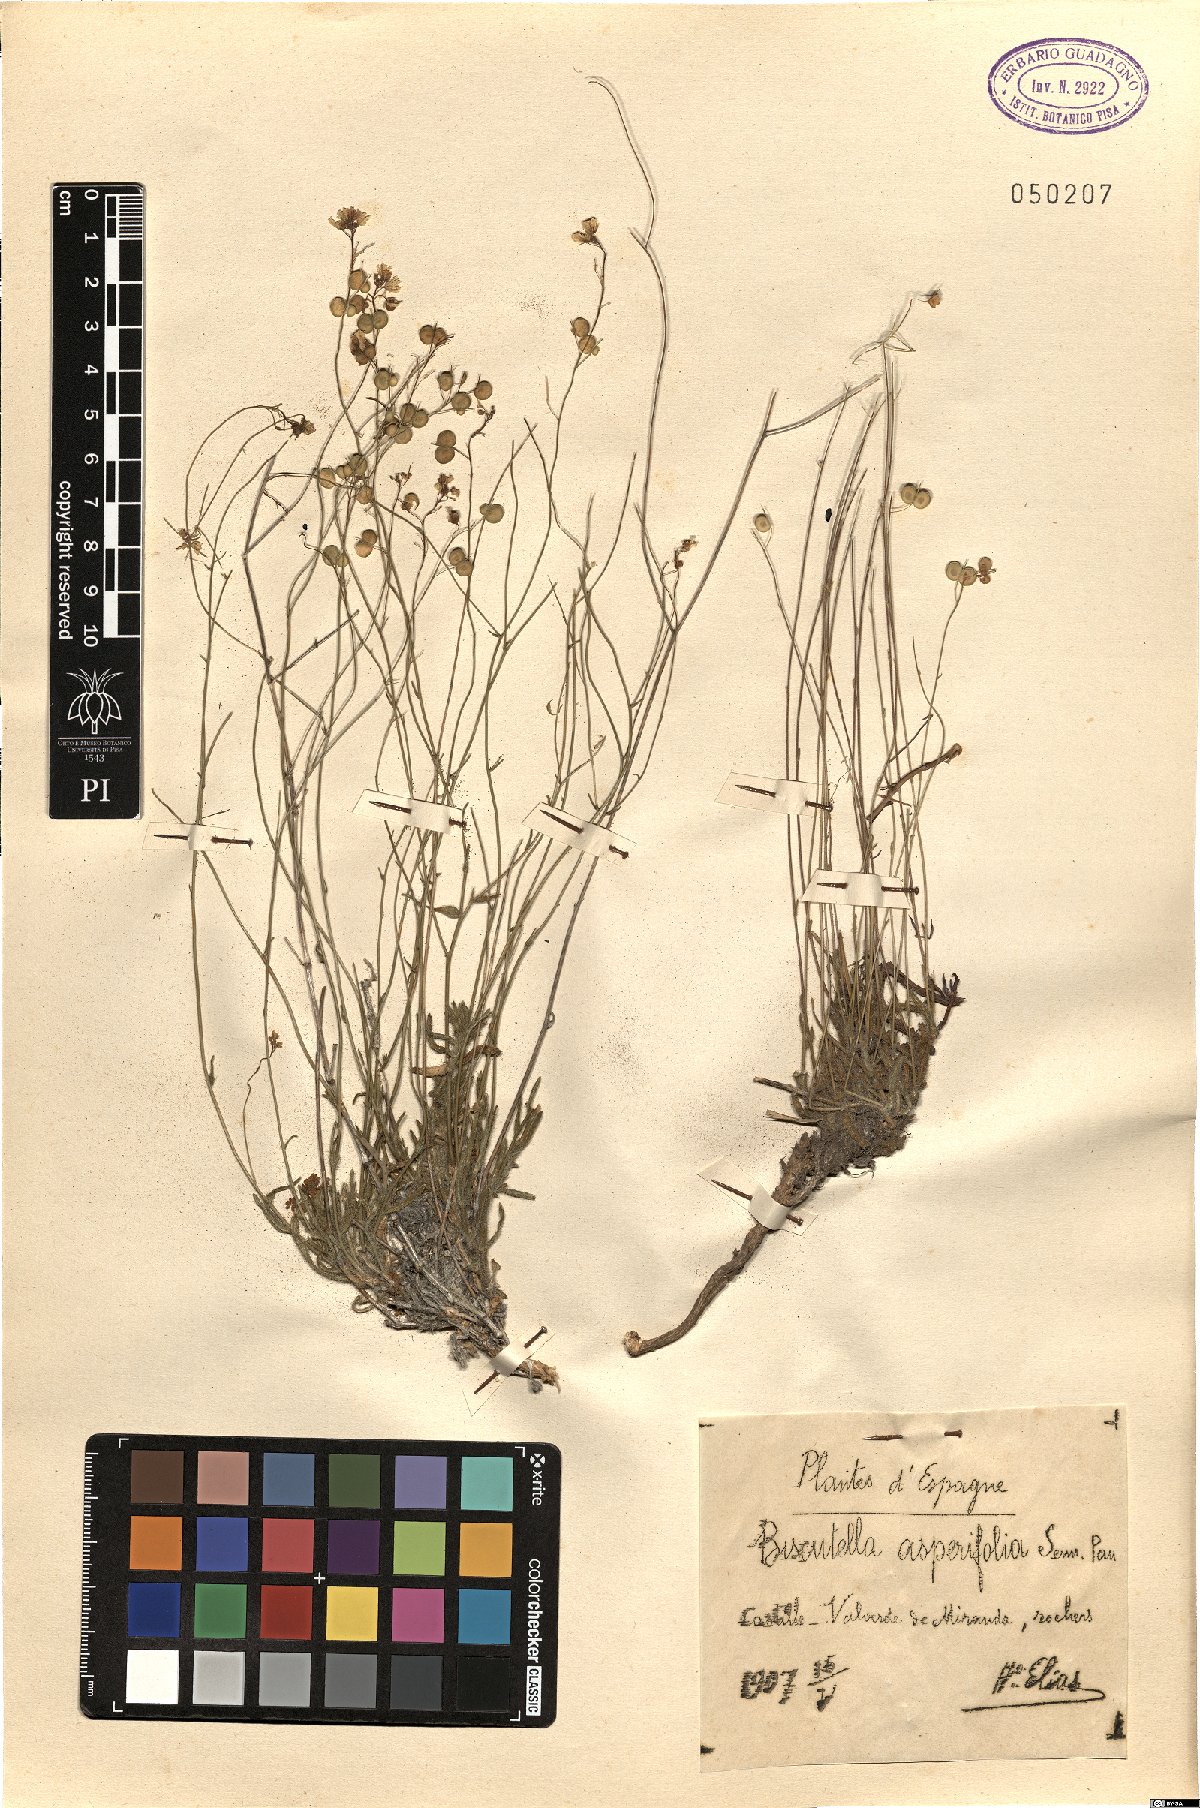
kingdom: Plantae
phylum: Tracheophyta
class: Magnoliopsida
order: Brassicales
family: Brassicaceae
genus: Biscutella
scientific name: Biscutella valentina
